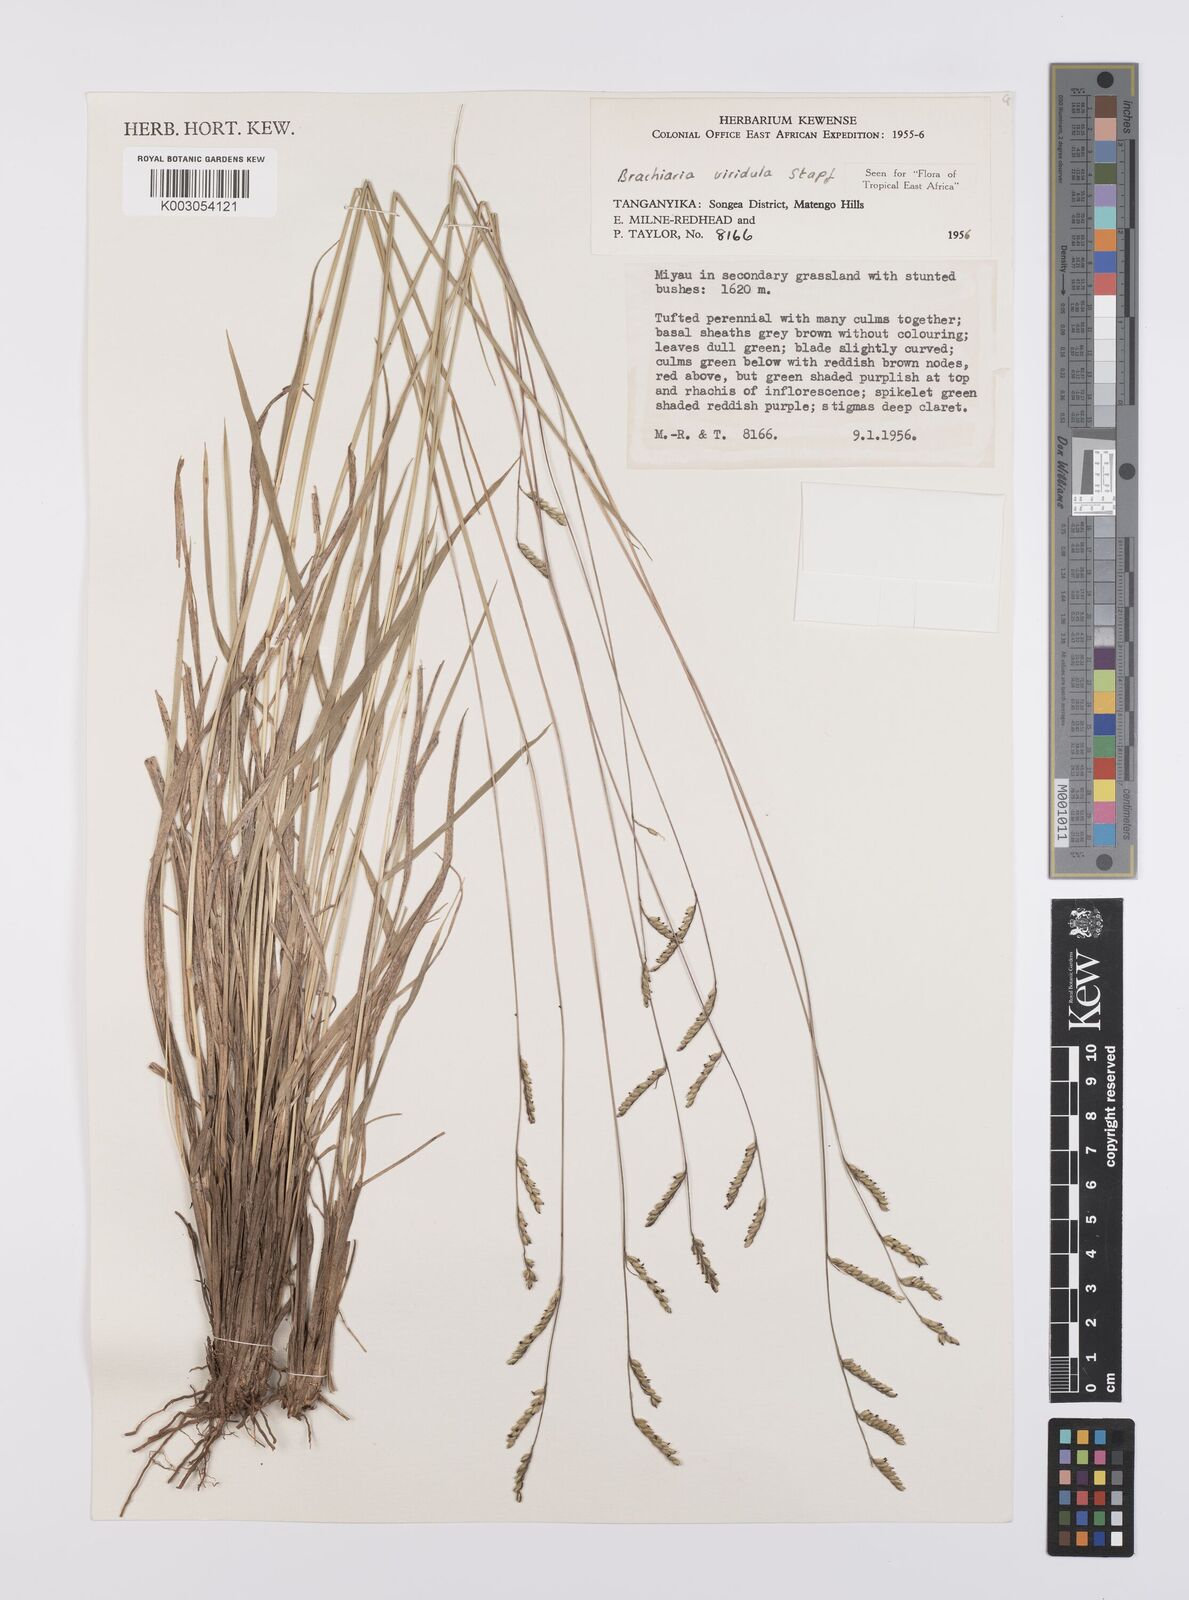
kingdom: Plantae
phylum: Tracheophyta
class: Liliopsida
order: Poales
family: Poaceae
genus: Urochloa
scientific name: Urochloa bovonei
